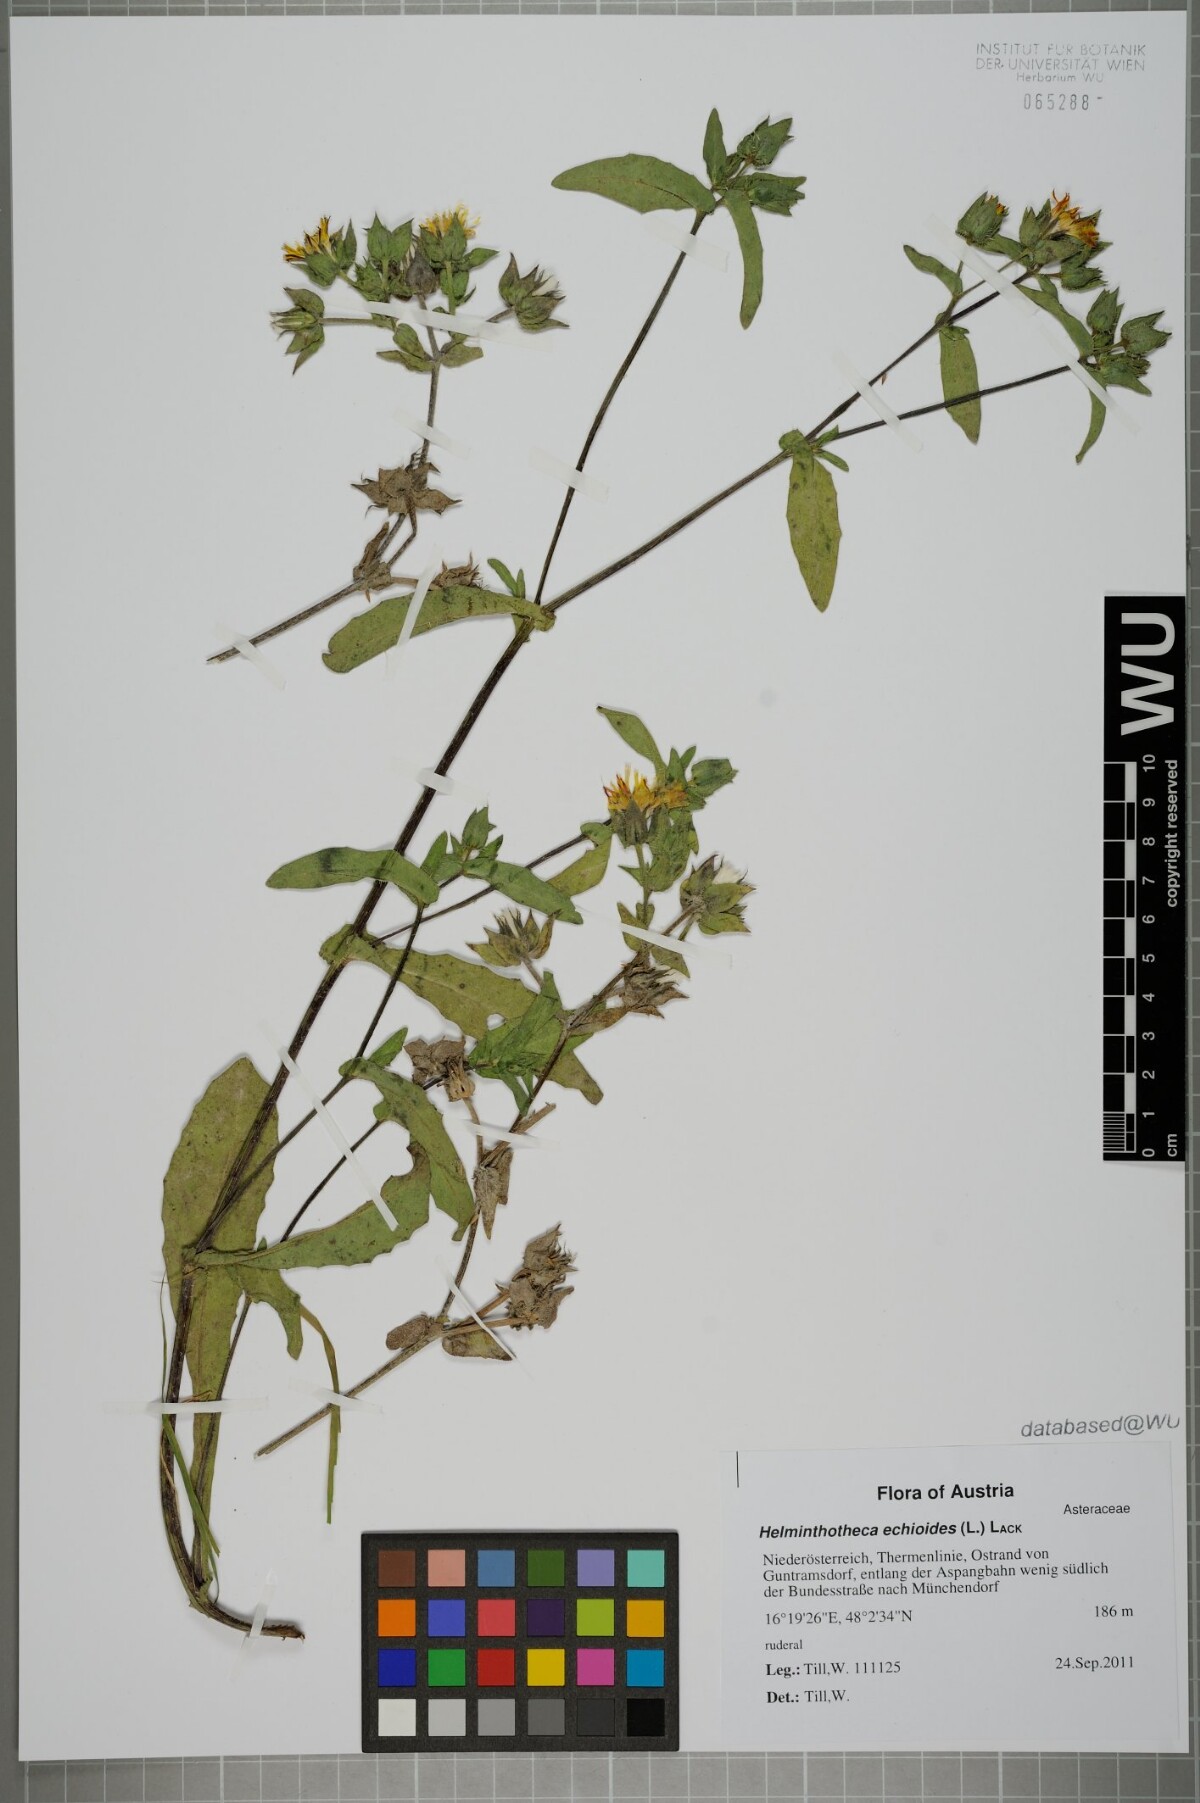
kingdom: Plantae
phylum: Tracheophyta
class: Magnoliopsida
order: Asterales
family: Asteraceae
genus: Helminthotheca
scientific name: Helminthotheca echioides
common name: Ox-tongue
